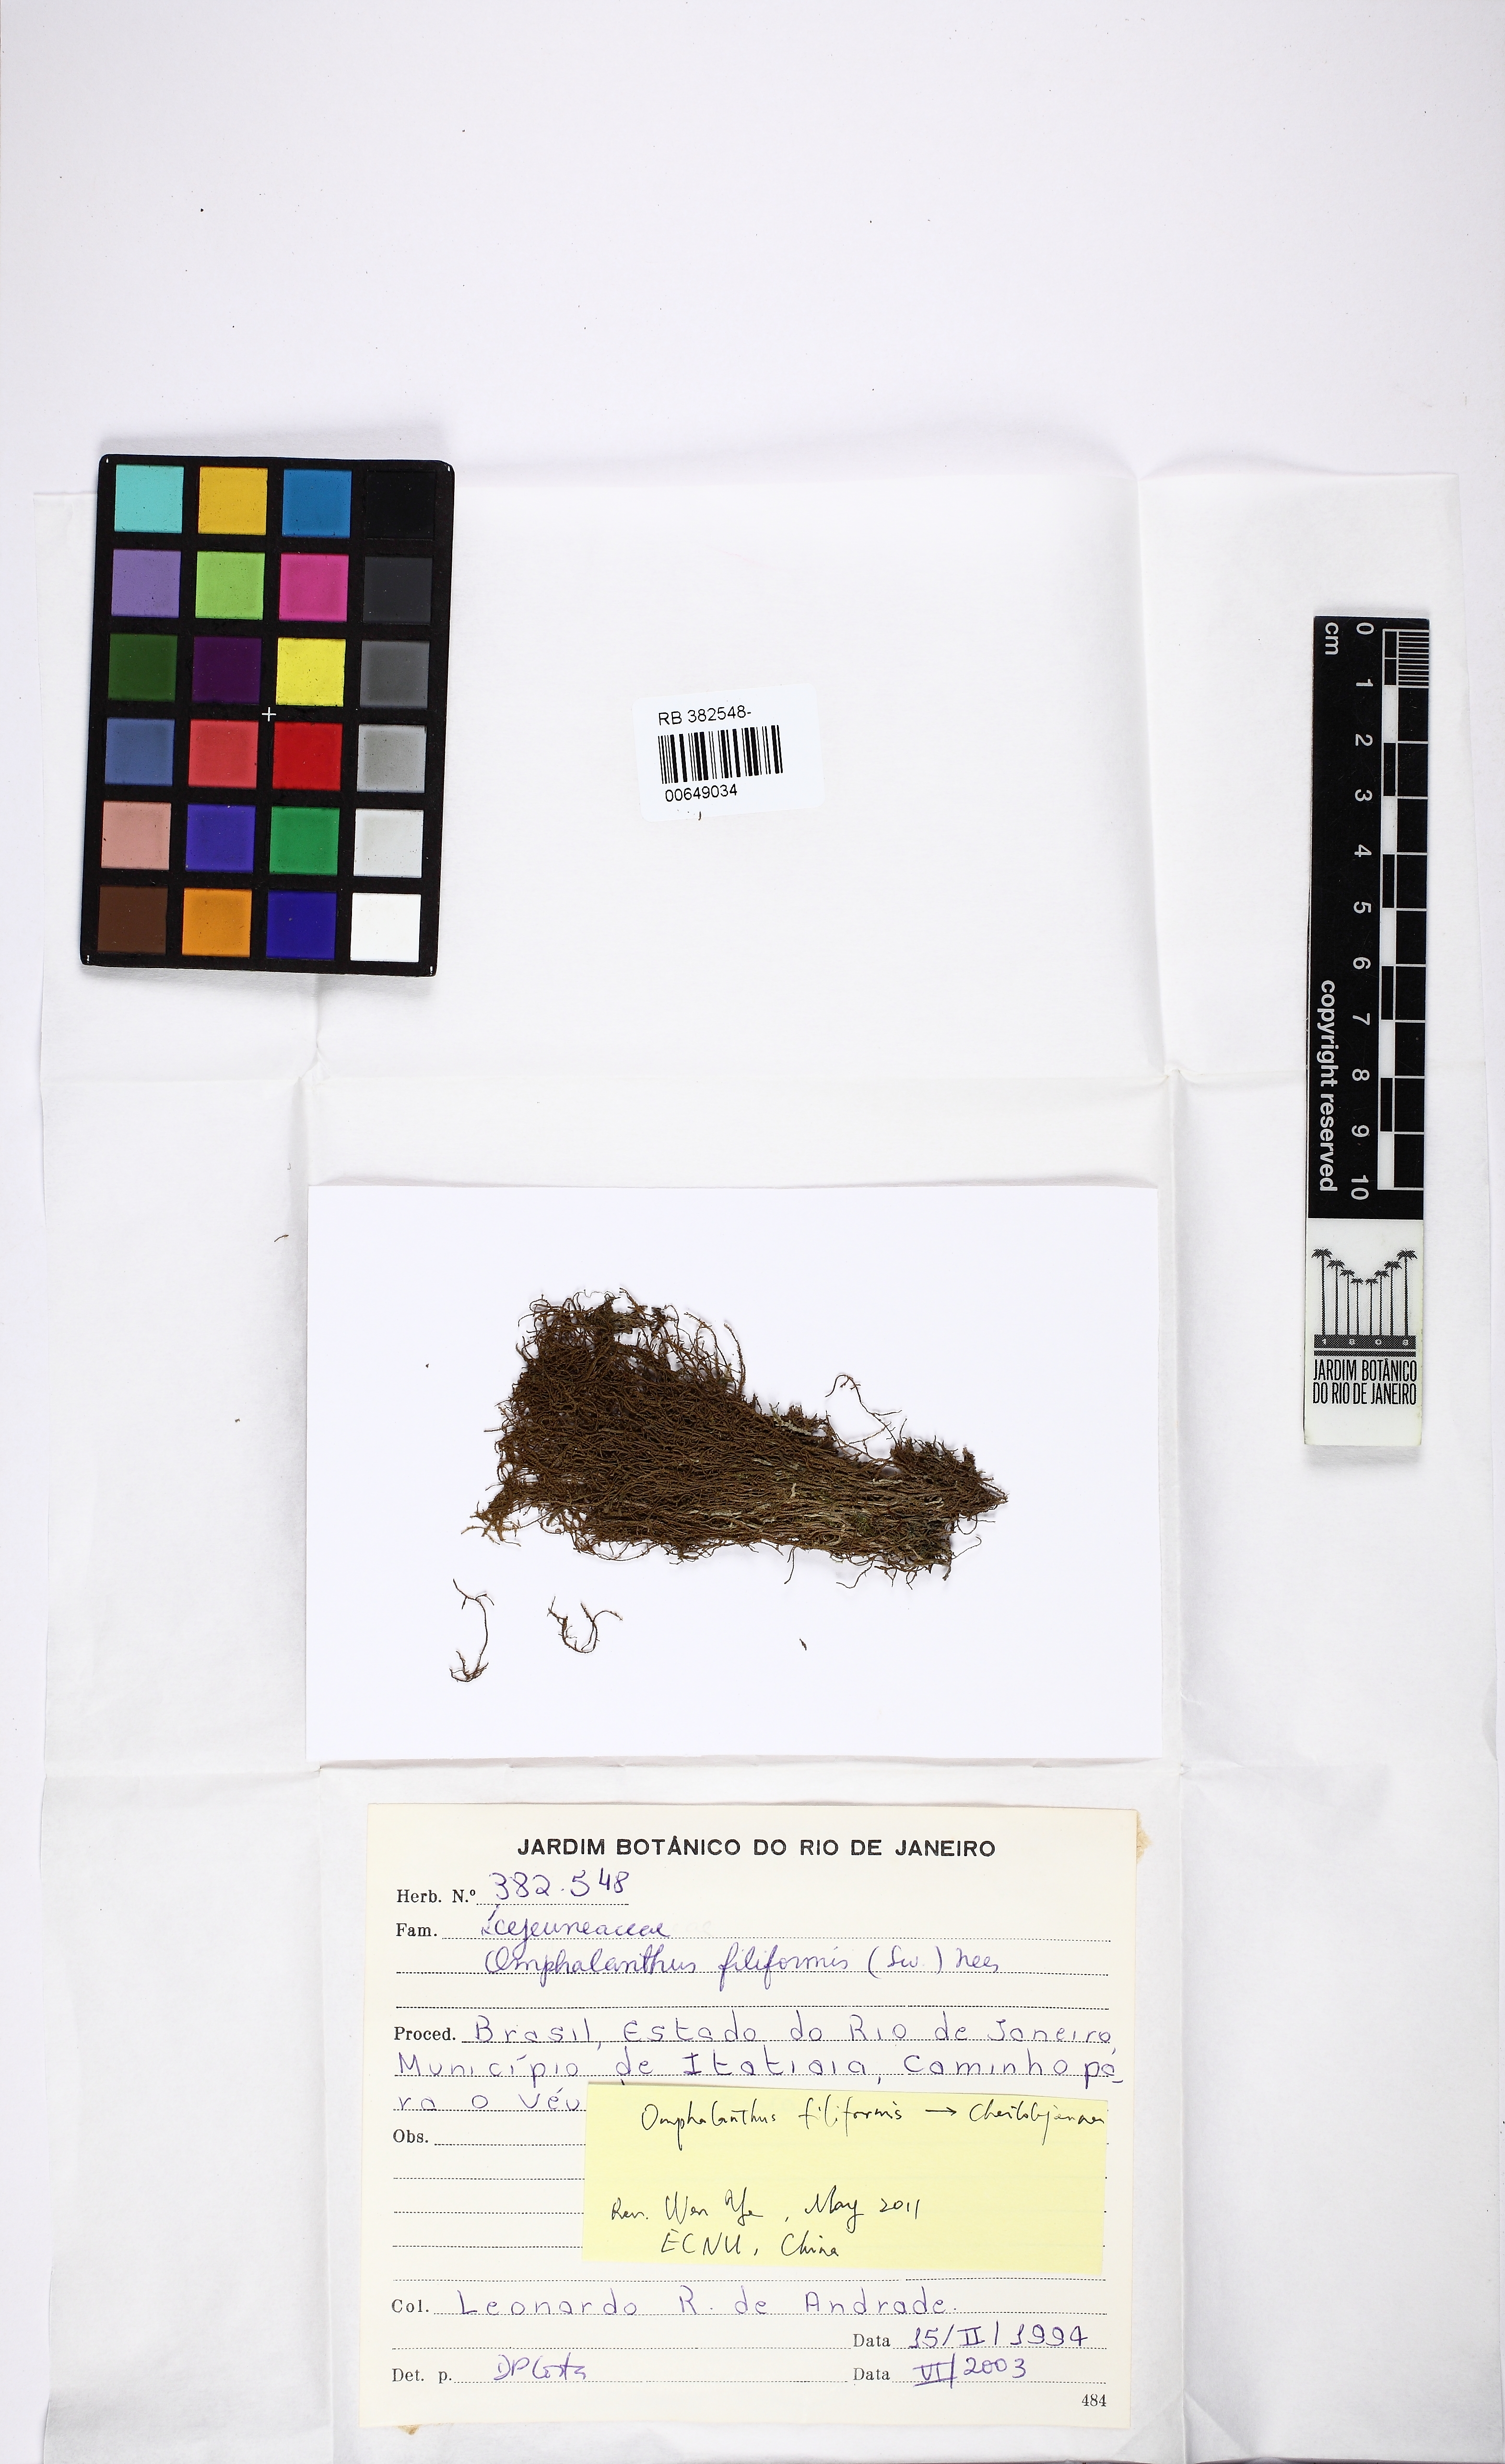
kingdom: Plantae
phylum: Marchantiophyta
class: Jungermanniopsida
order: Porellales
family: Lejeuneaceae
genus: Cheilolejeunea
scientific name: Cheilolejeunea filiformis
